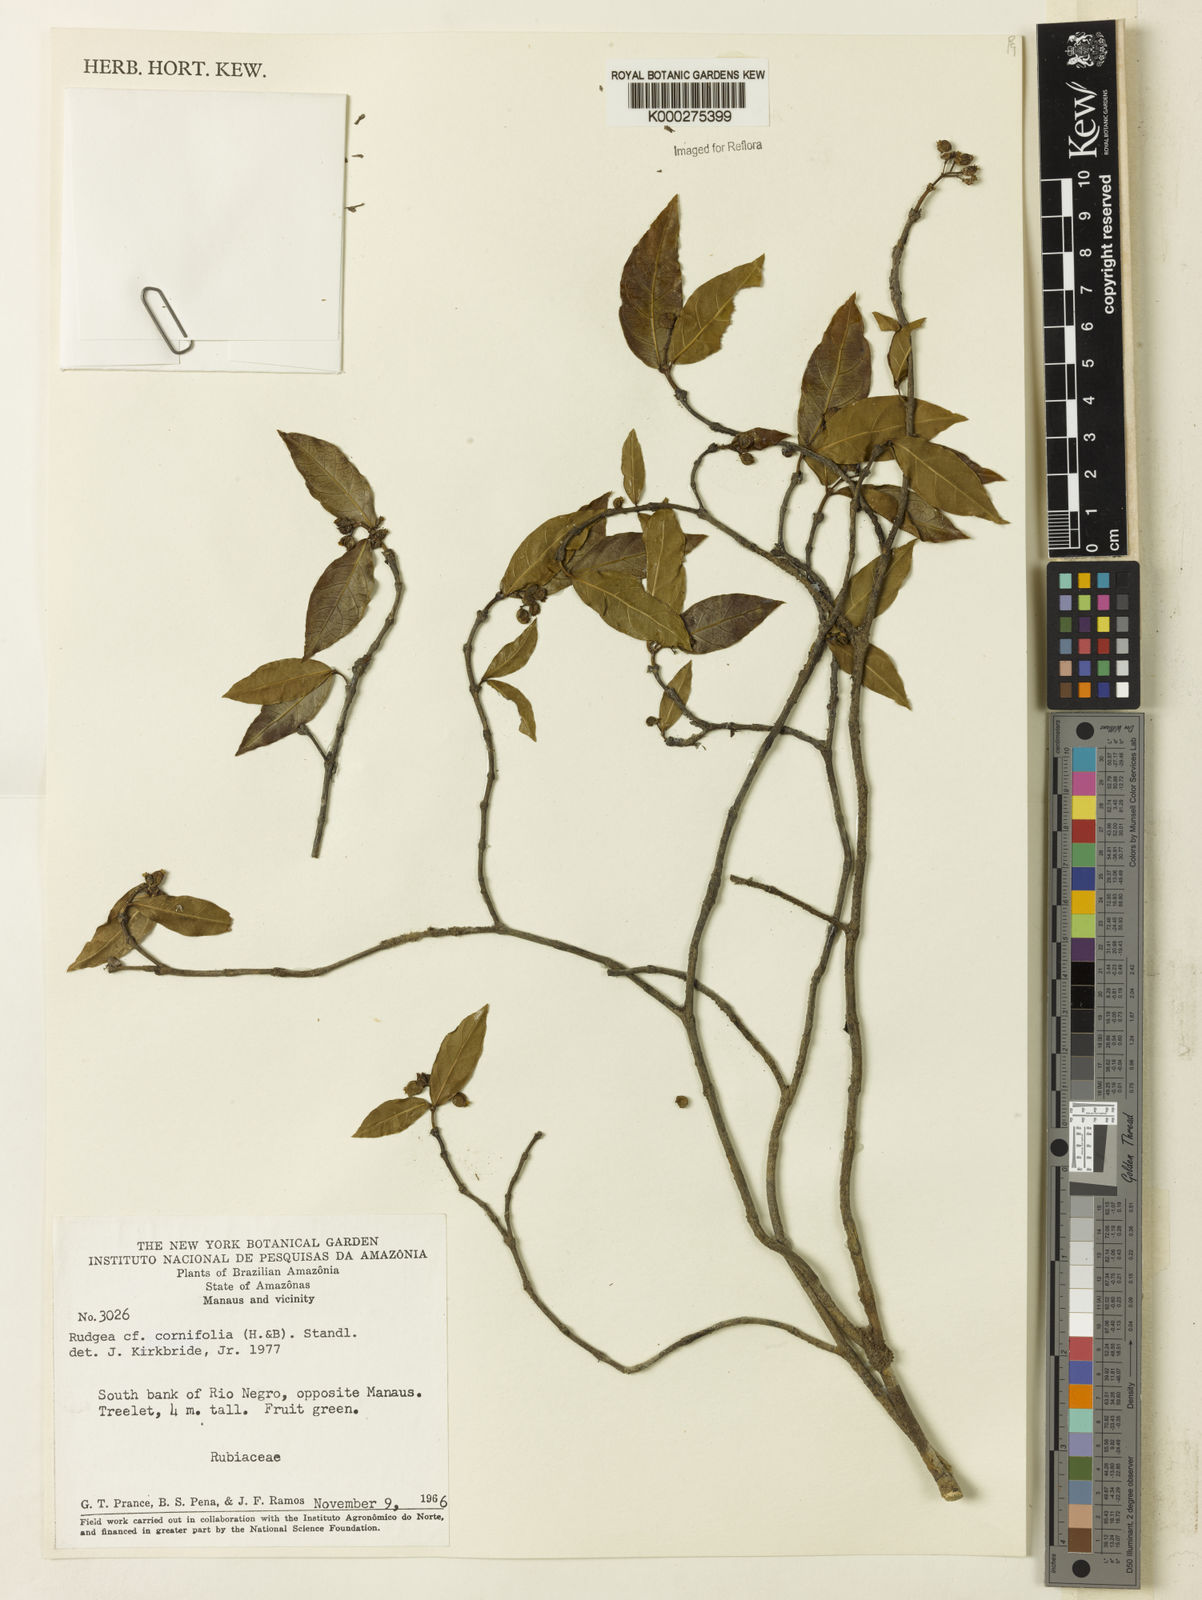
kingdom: Plantae
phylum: Tracheophyta
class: Magnoliopsida
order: Gentianales
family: Rubiaceae
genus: Rudgea
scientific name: Rudgea cornifolia
